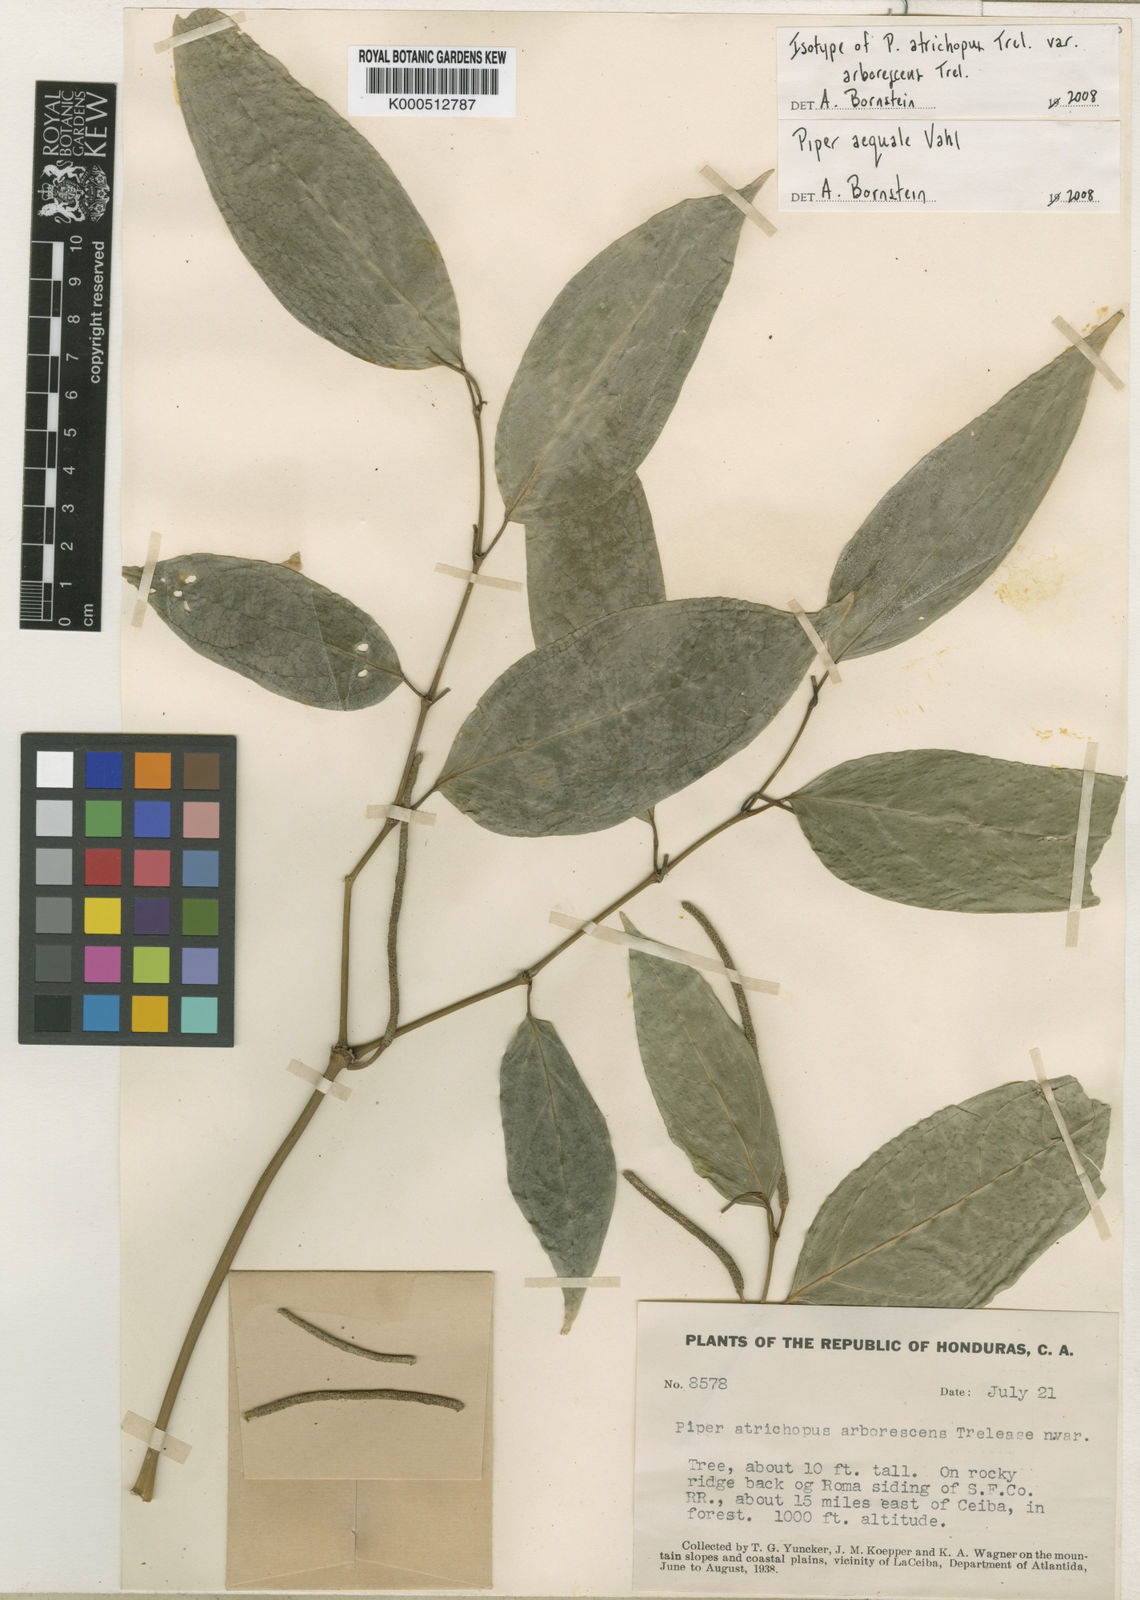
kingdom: Plantae
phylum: Tracheophyta
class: Magnoliopsida
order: Piperales
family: Piperaceae
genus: Piper
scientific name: Piper aequale
